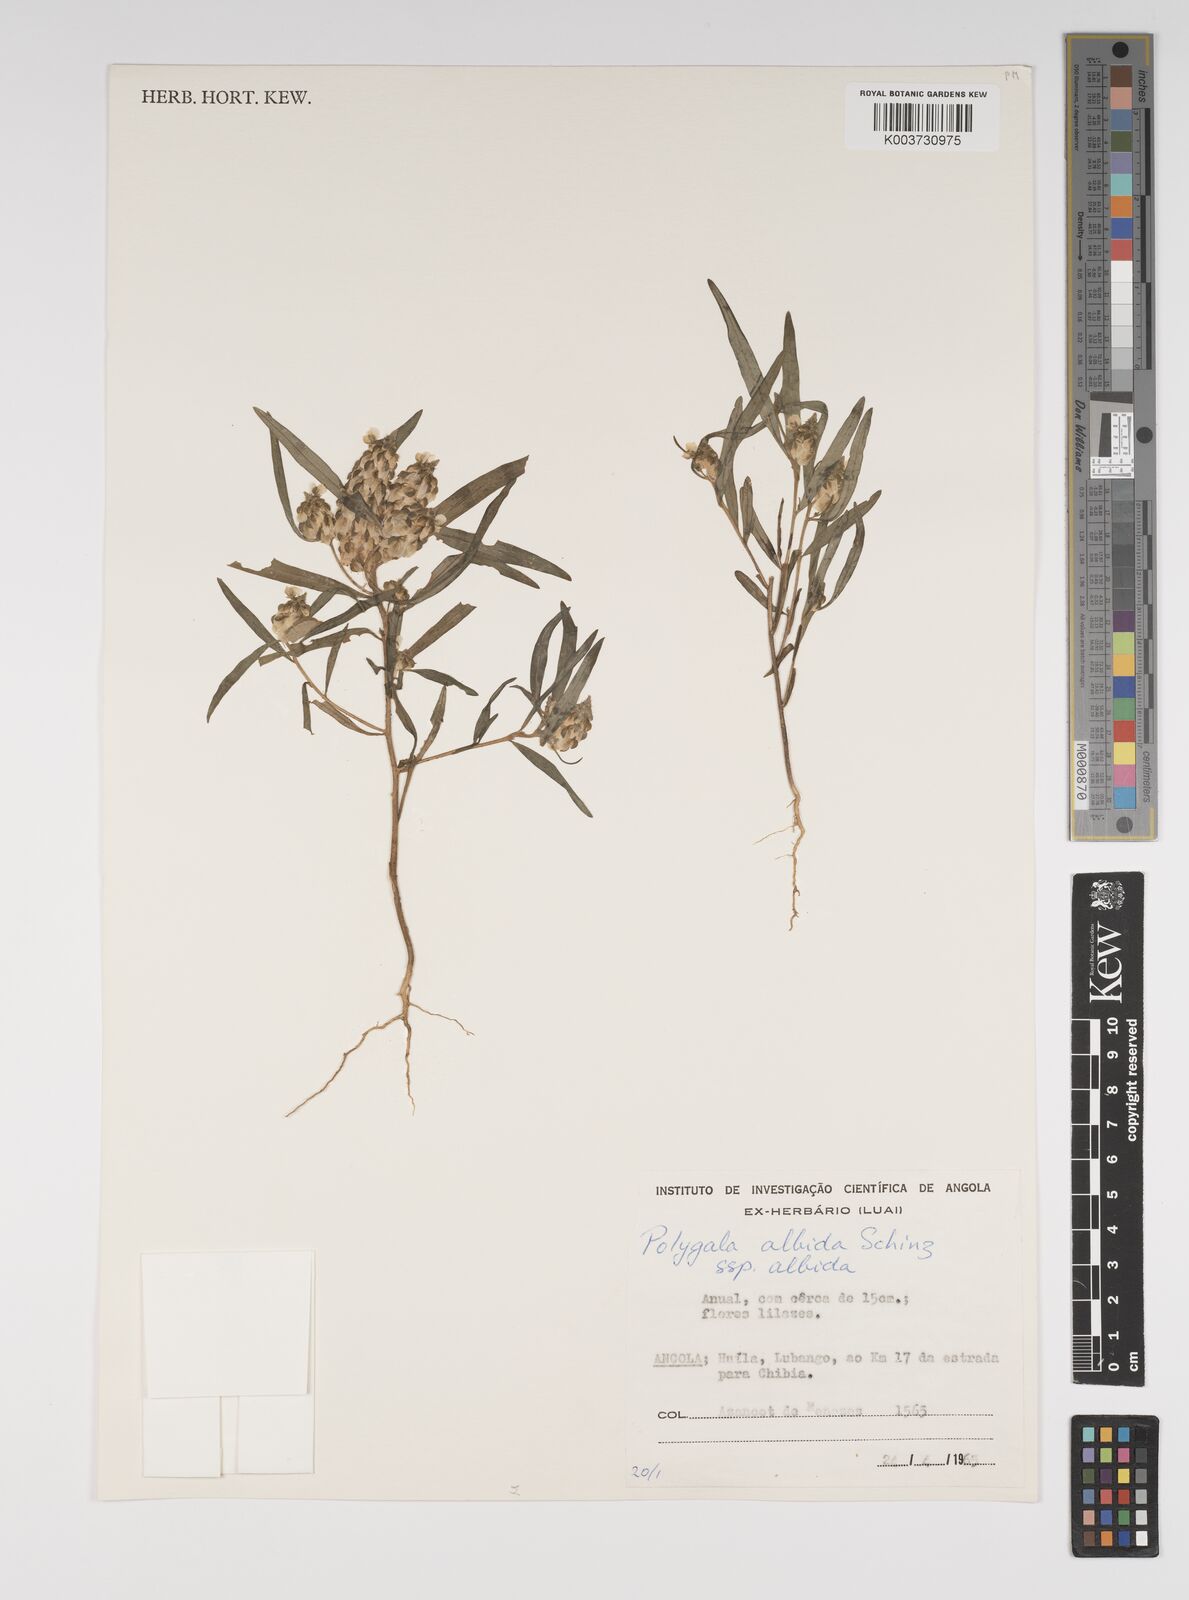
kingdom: Plantae
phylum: Tracheophyta
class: Magnoliopsida
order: Fabales
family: Polygalaceae
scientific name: Polygalaceae
